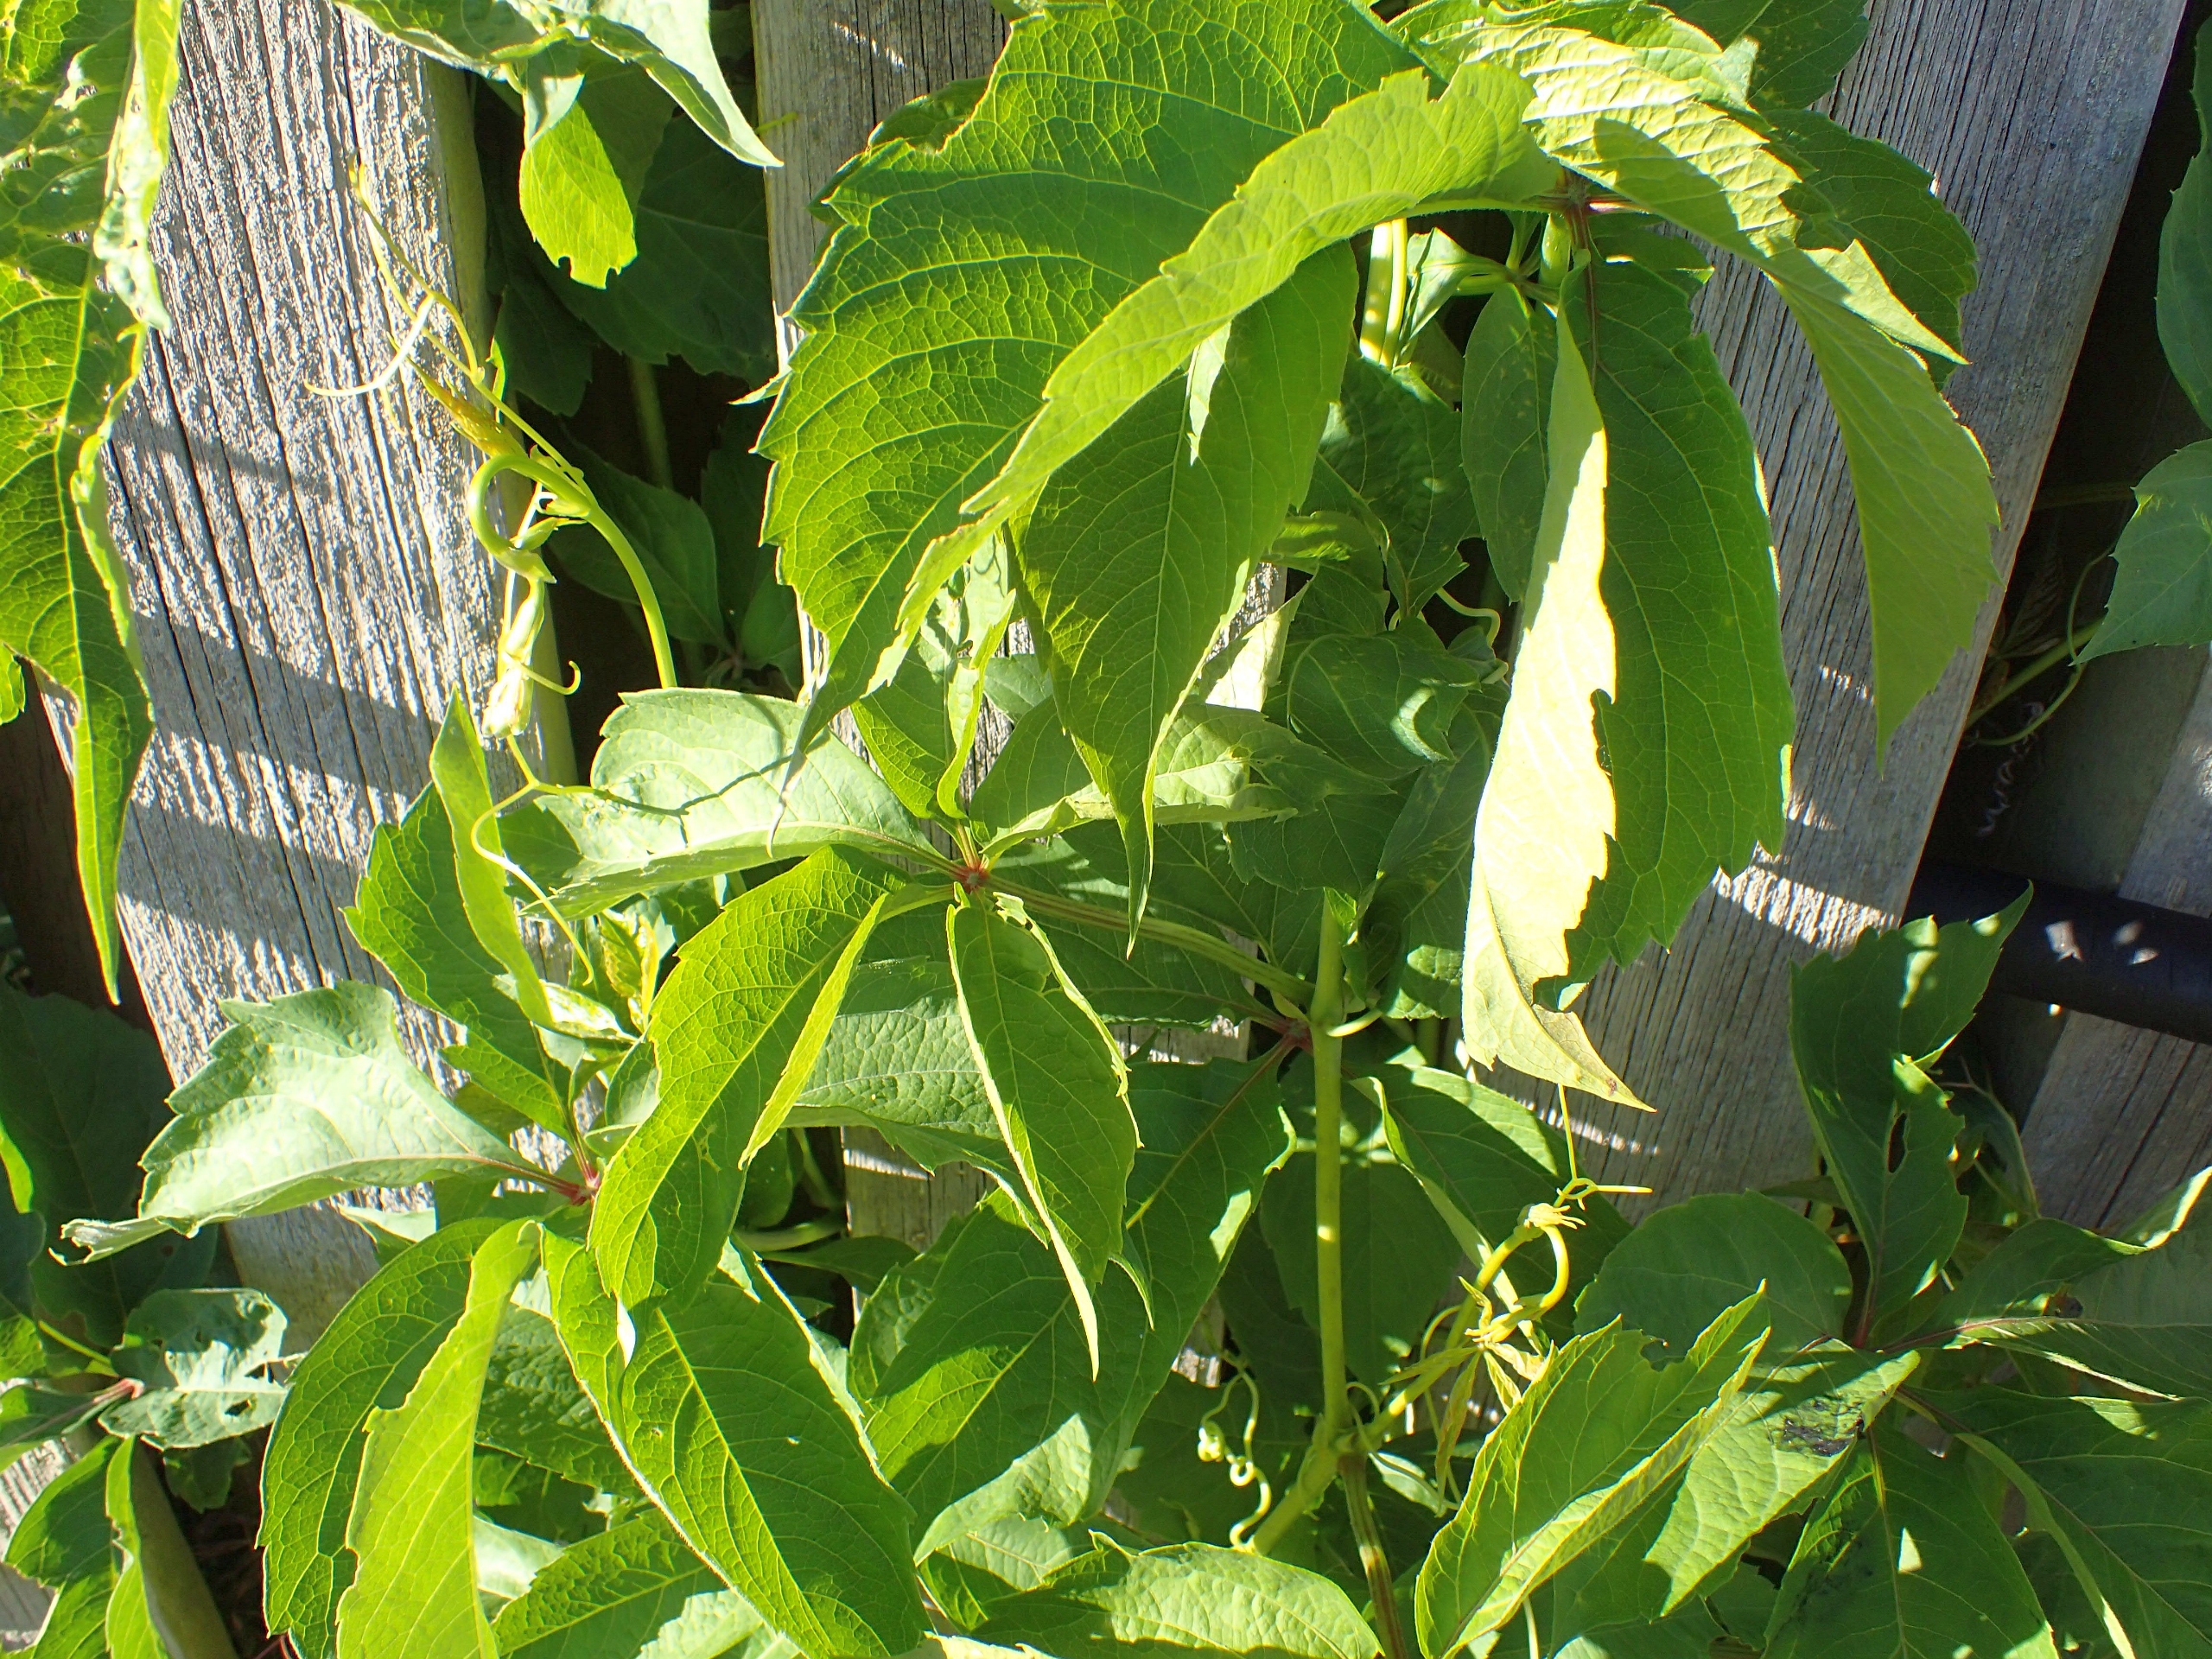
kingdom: Plantae
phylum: Tracheophyta
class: Magnoliopsida
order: Vitales
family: Vitaceae
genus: Parthenocissus
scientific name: Parthenocissus inserta
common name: Vildvin
